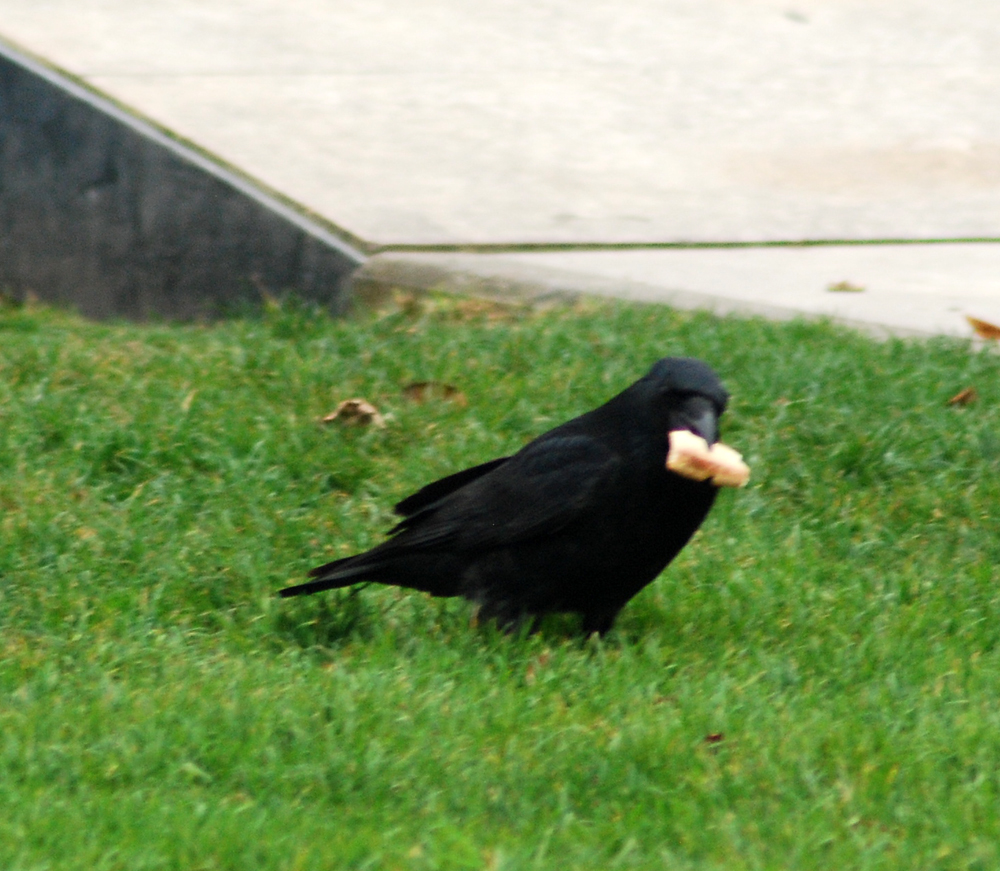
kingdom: Animalia
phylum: Chordata
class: Aves
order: Passeriformes
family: Corvidae
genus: Corvus
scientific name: Corvus corone
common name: Carrion crow
